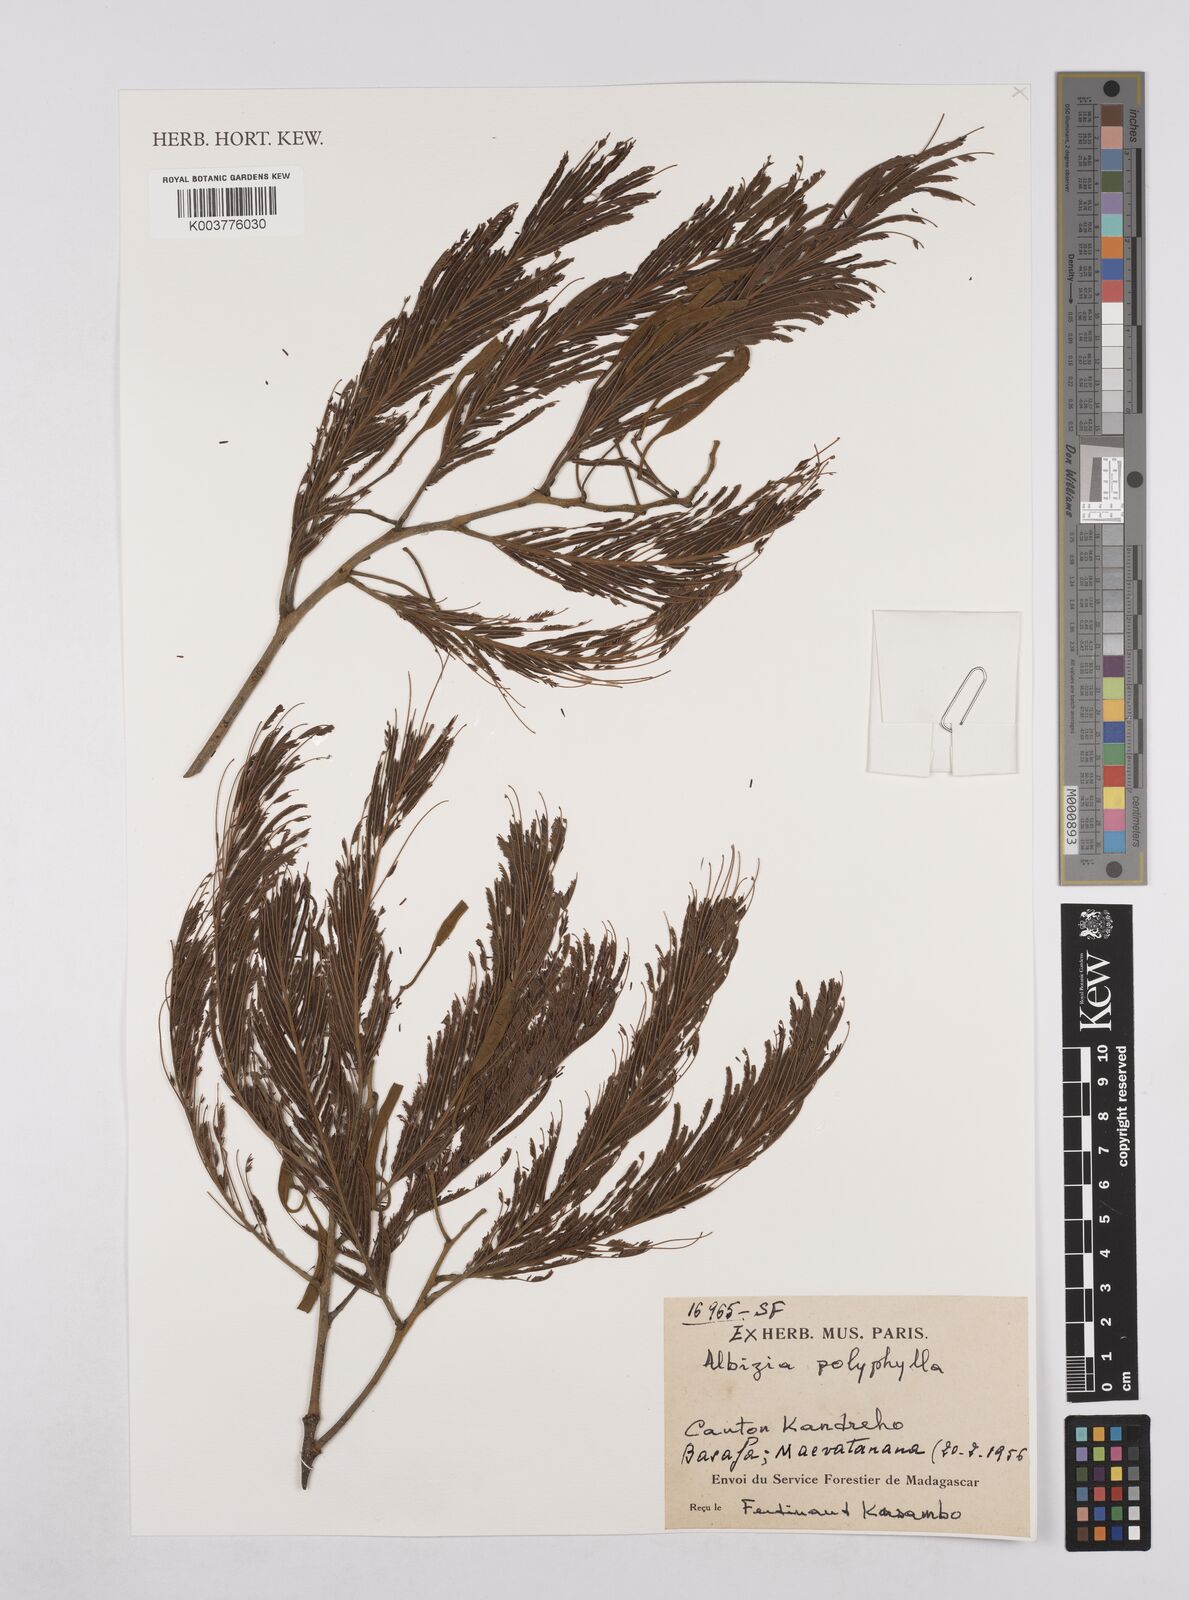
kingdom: Plantae
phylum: Tracheophyta
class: Magnoliopsida
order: Fabales
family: Fabaceae
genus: Albizia
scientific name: Albizia polyphylla
